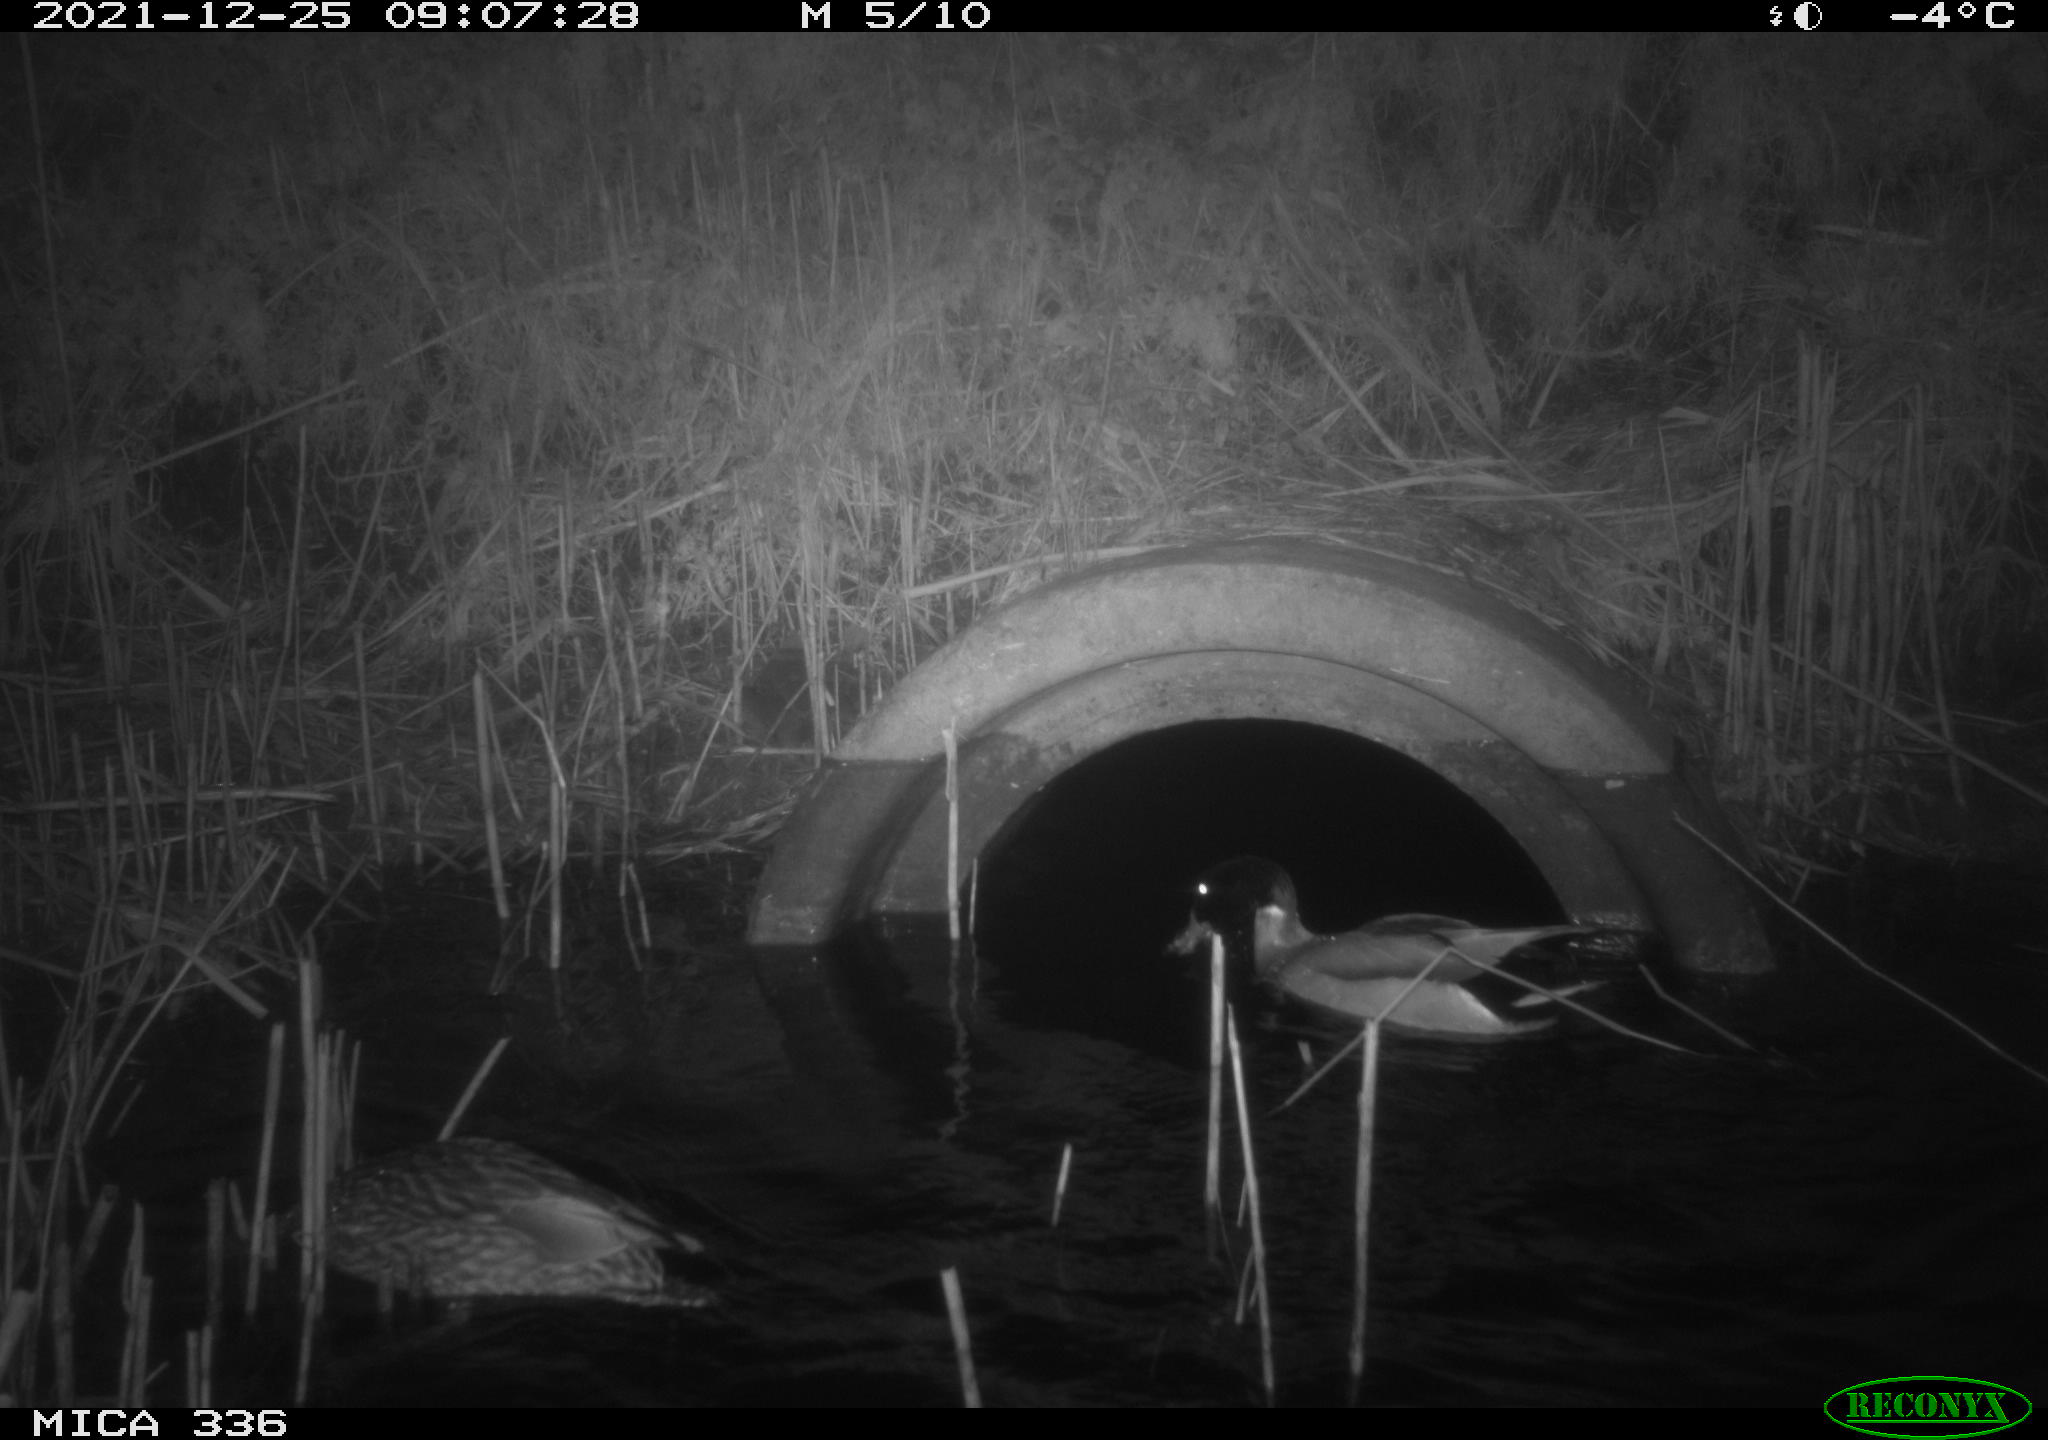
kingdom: Animalia
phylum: Chordata
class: Aves
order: Anseriformes
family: Anatidae
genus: Anas
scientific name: Anas platyrhynchos
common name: Mallard
